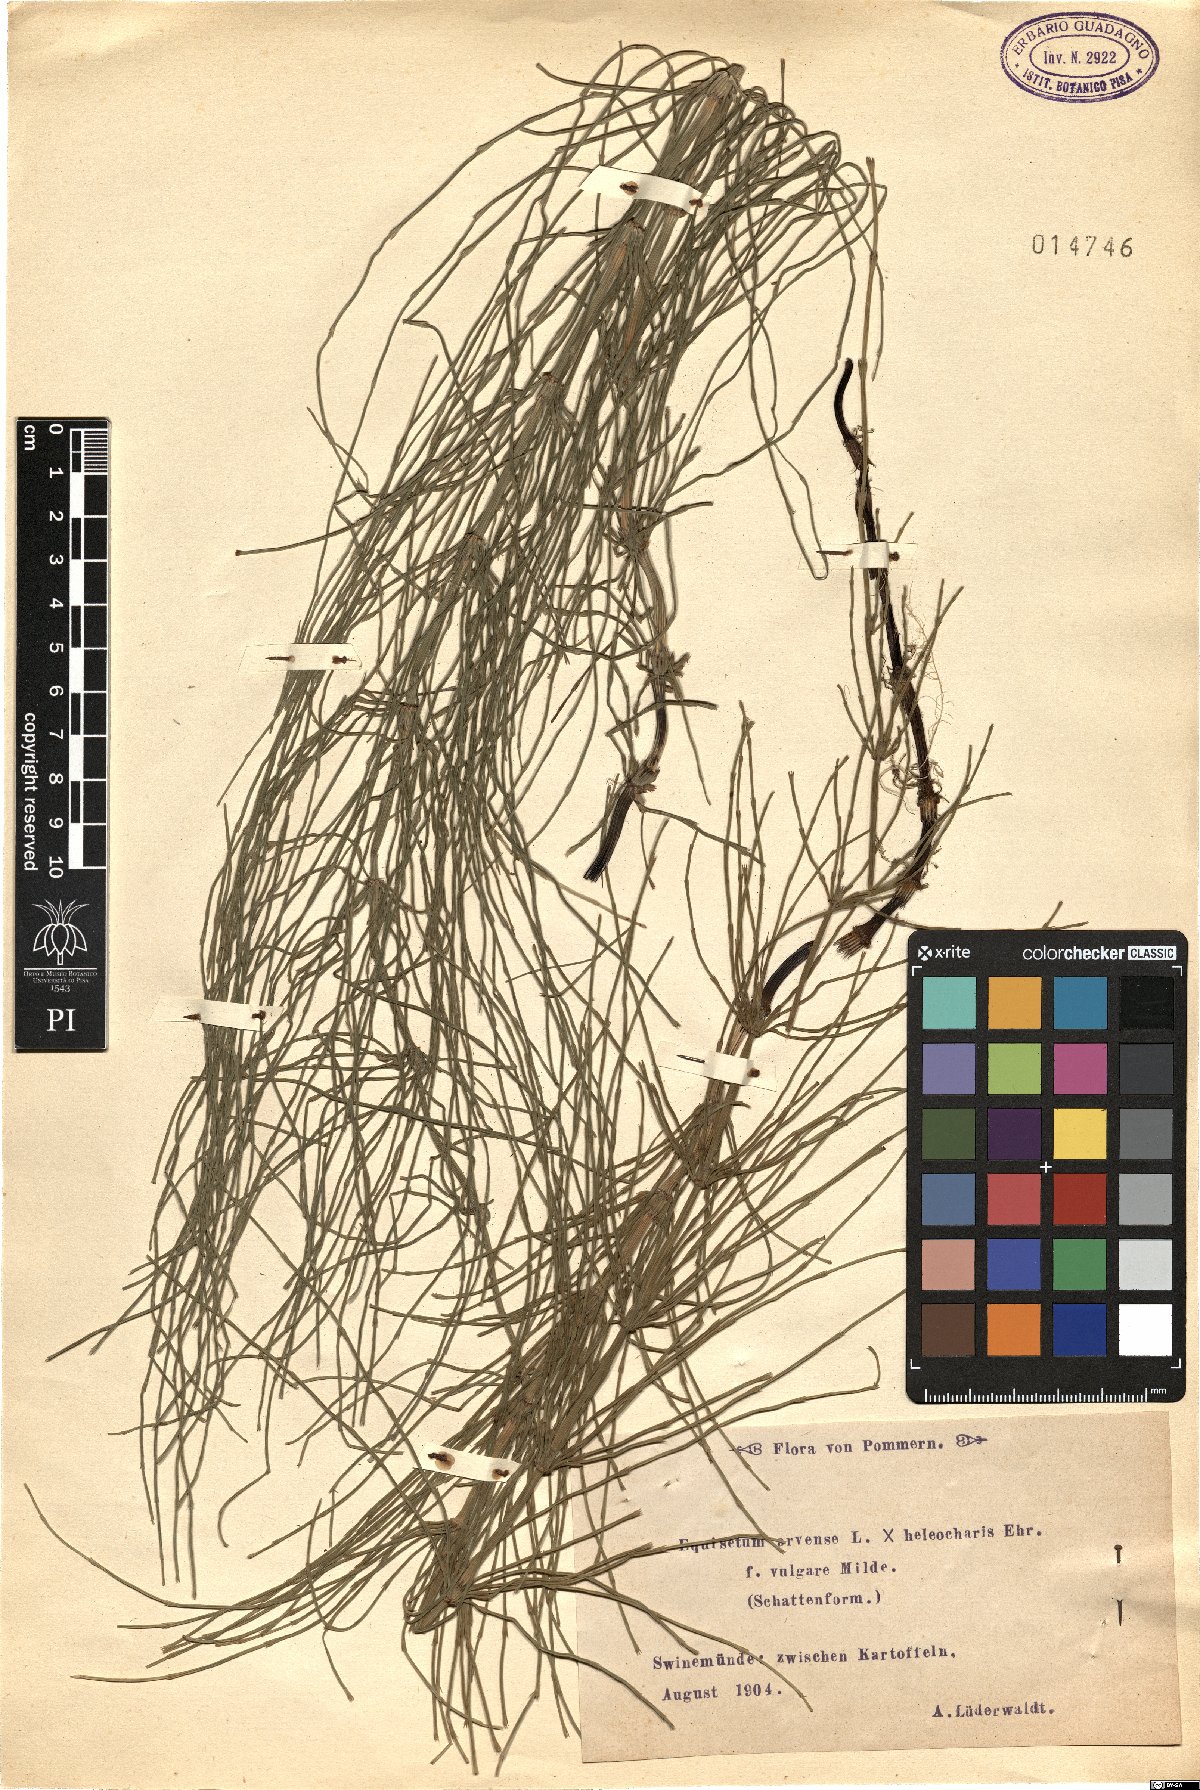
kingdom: Plantae
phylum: Tracheophyta
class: Polypodiopsida
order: Equisetales
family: Equisetaceae
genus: Equisetum
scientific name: Equisetum arvense
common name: Field horsetail
